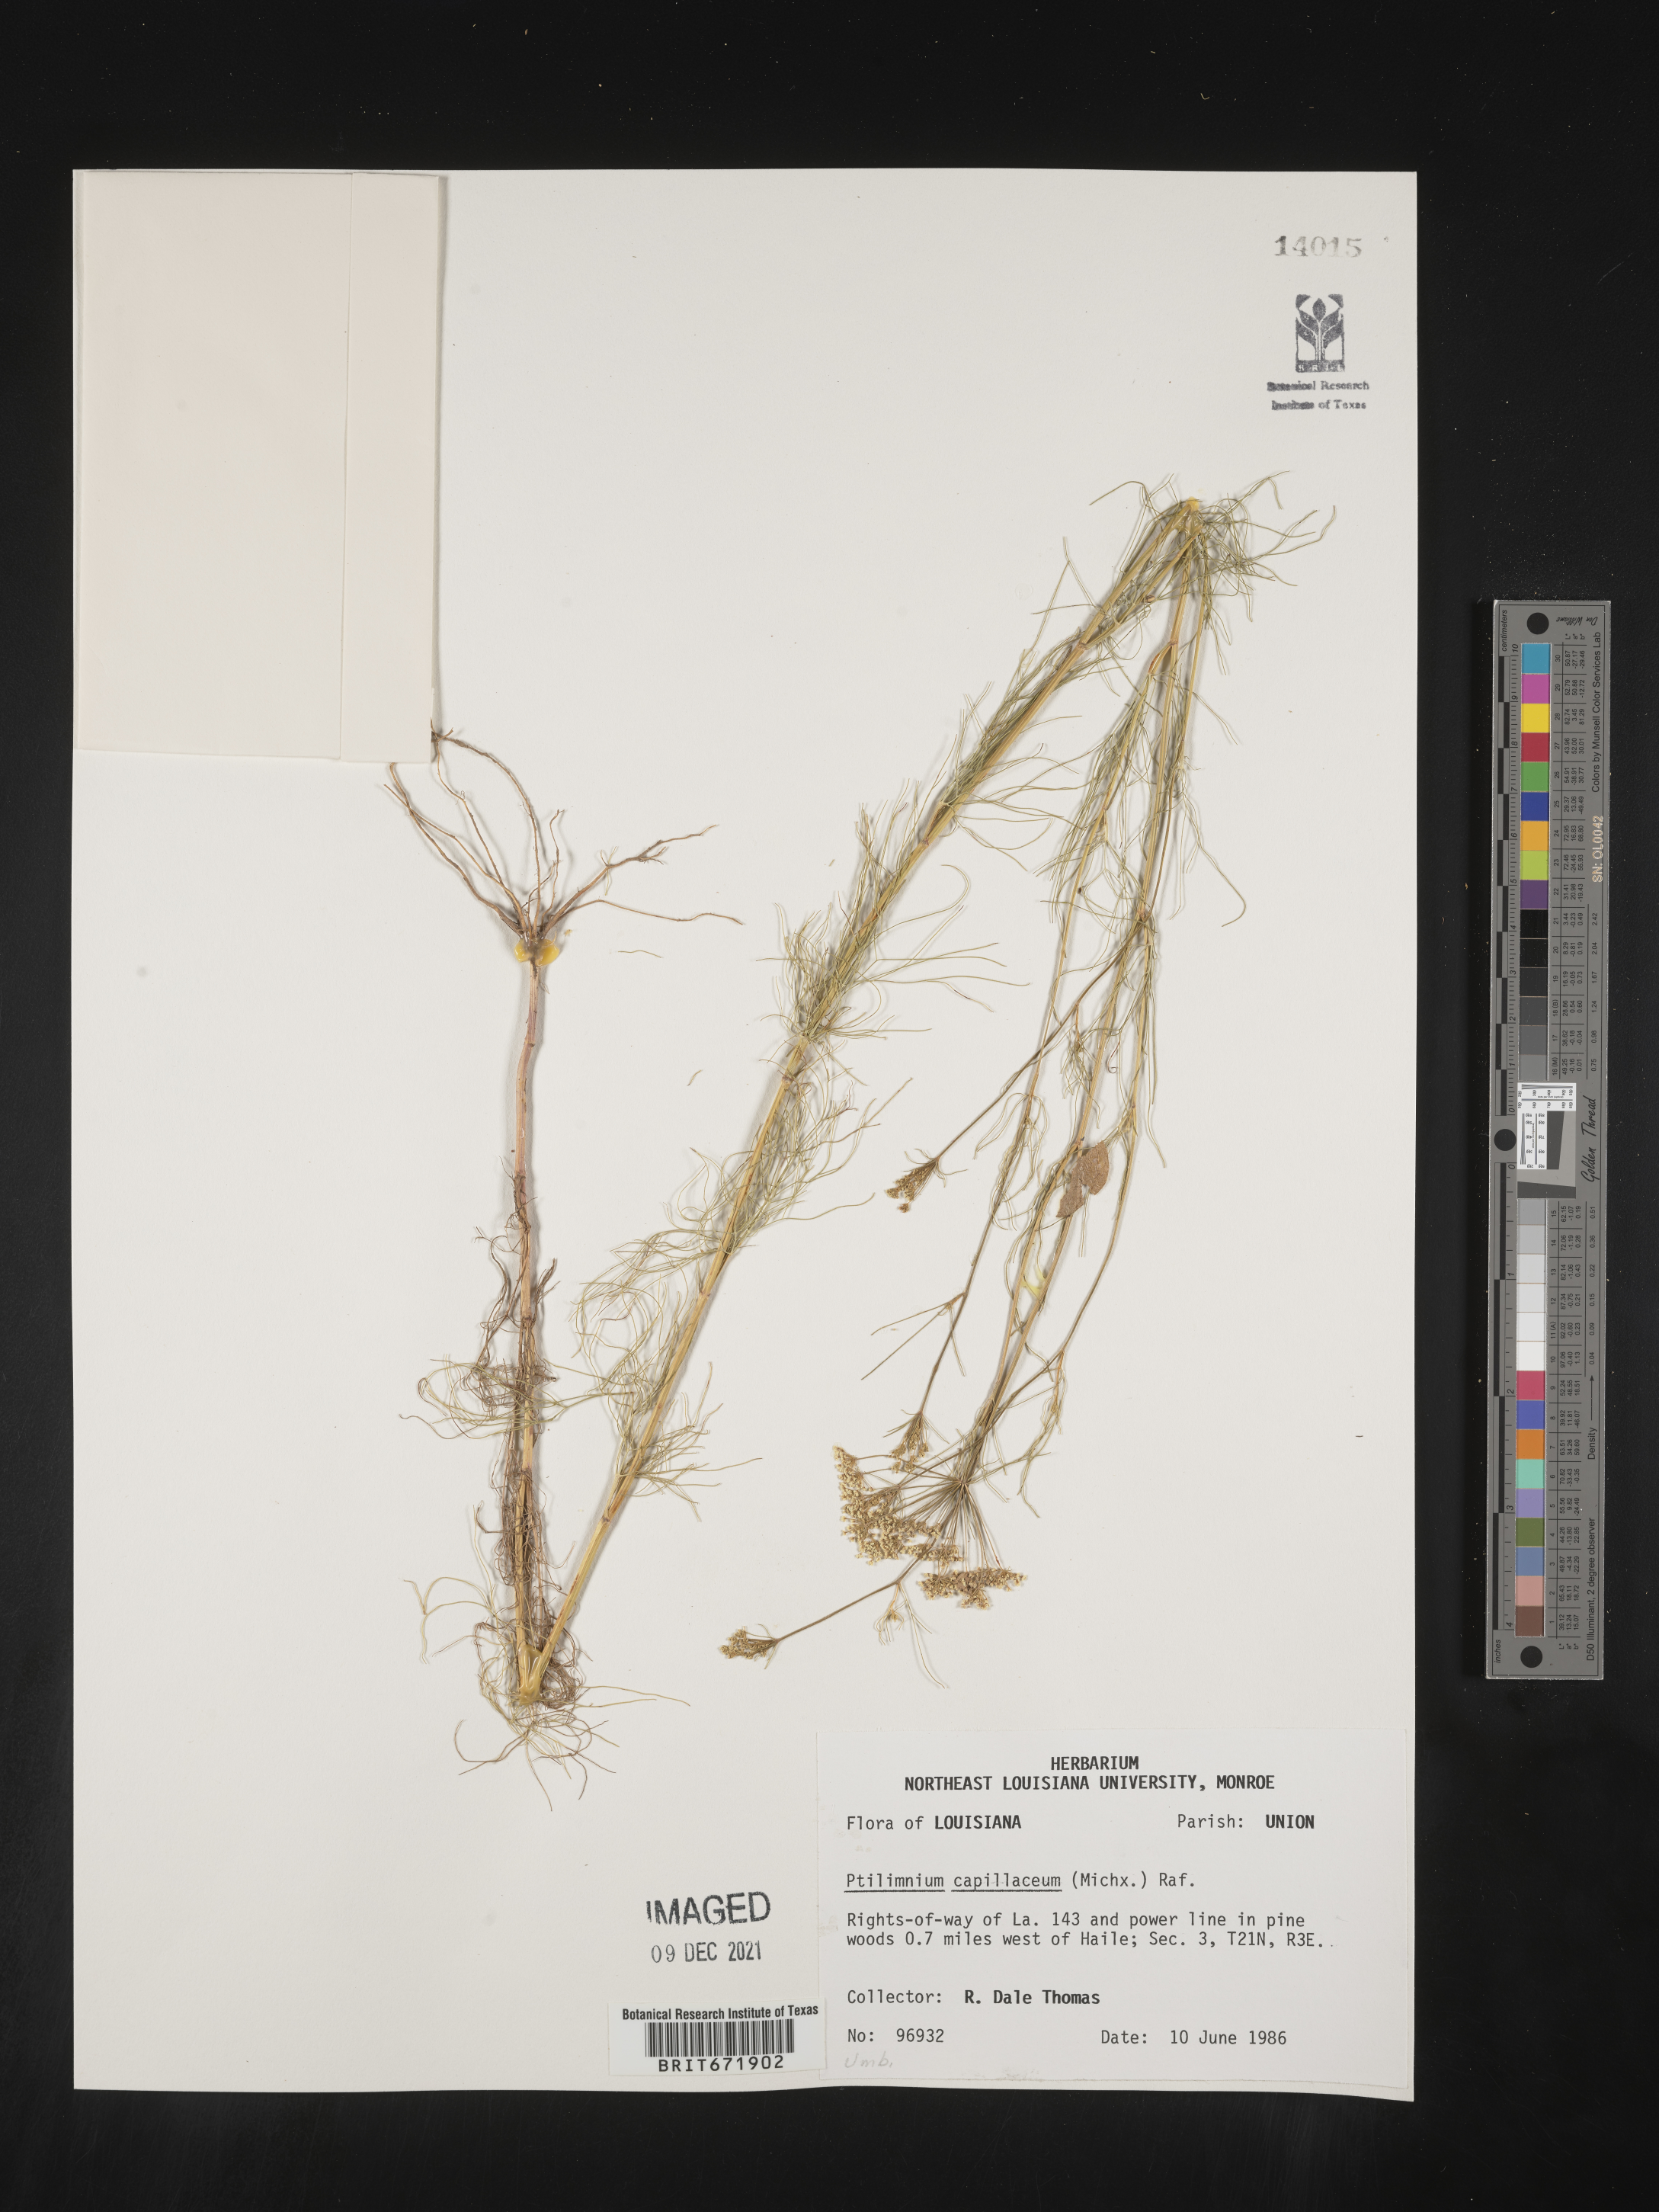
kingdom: Plantae
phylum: Tracheophyta
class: Magnoliopsida
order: Apiales
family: Apiaceae
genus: Ptilimnium
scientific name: Ptilimnium capillaceum
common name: Herbwilliam
